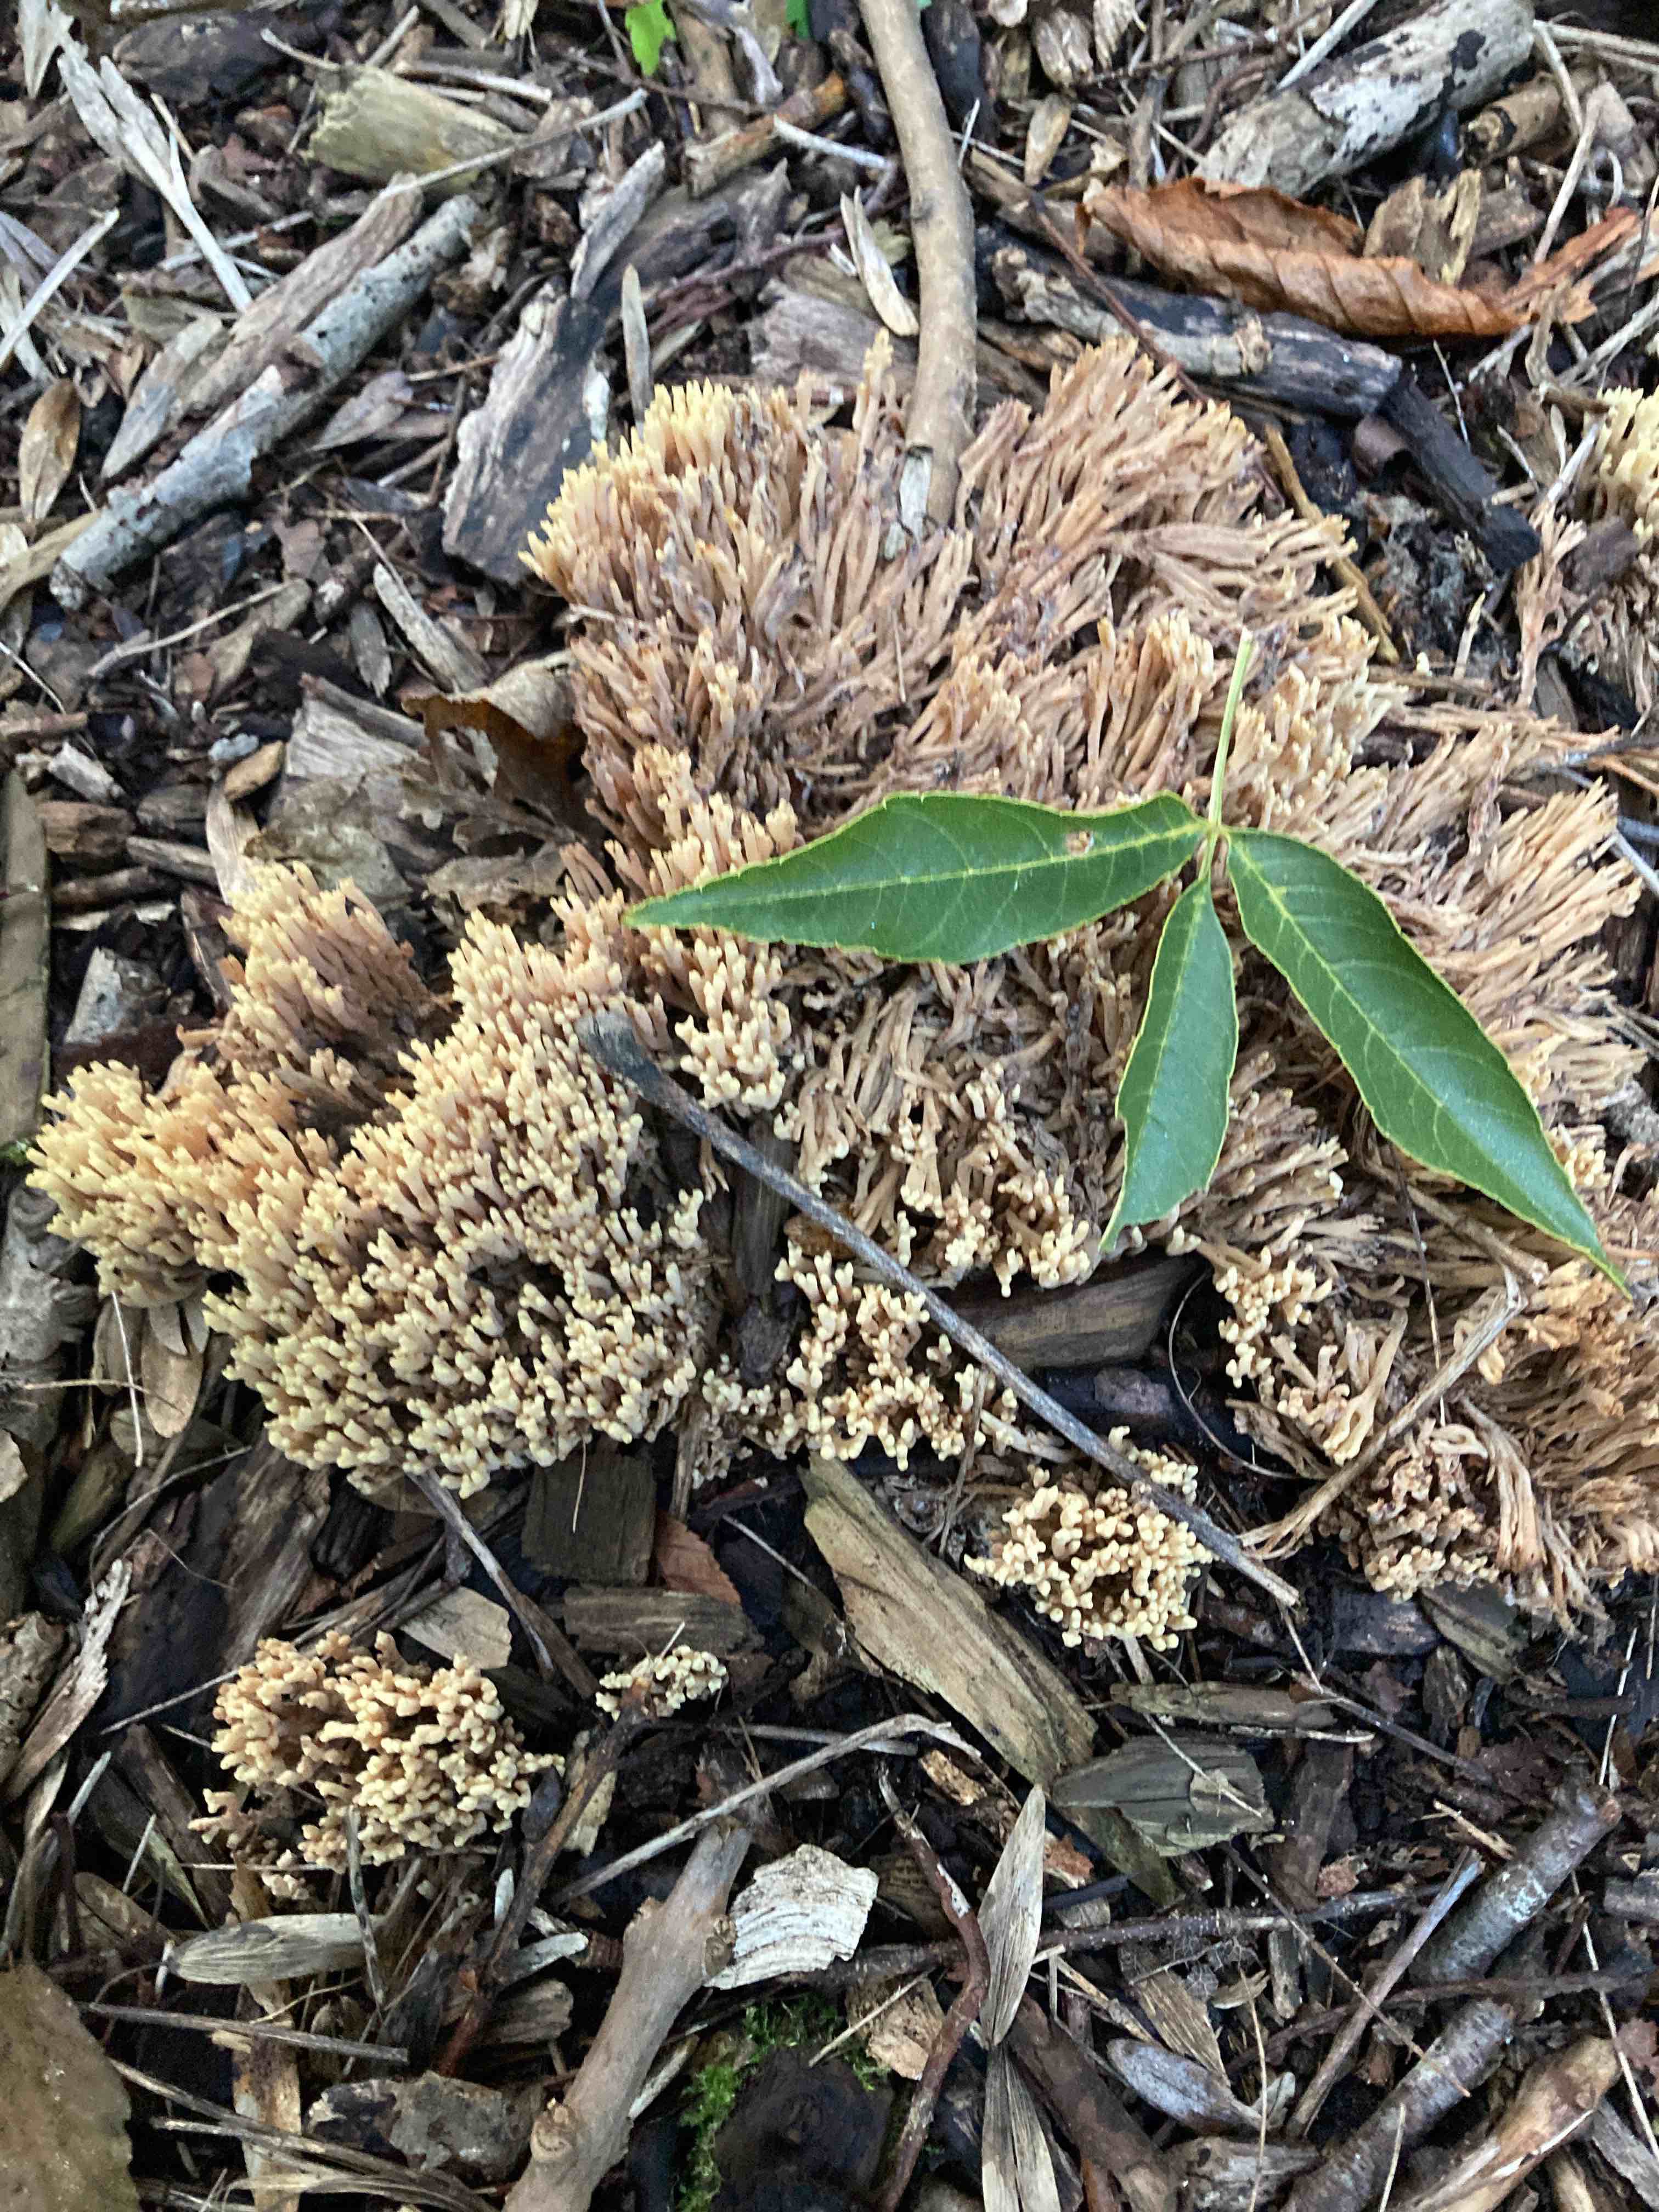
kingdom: Fungi
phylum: Basidiomycota
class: Agaricomycetes
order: Gomphales
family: Gomphaceae
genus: Ramaria
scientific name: Ramaria stricta
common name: rank koralsvamp
